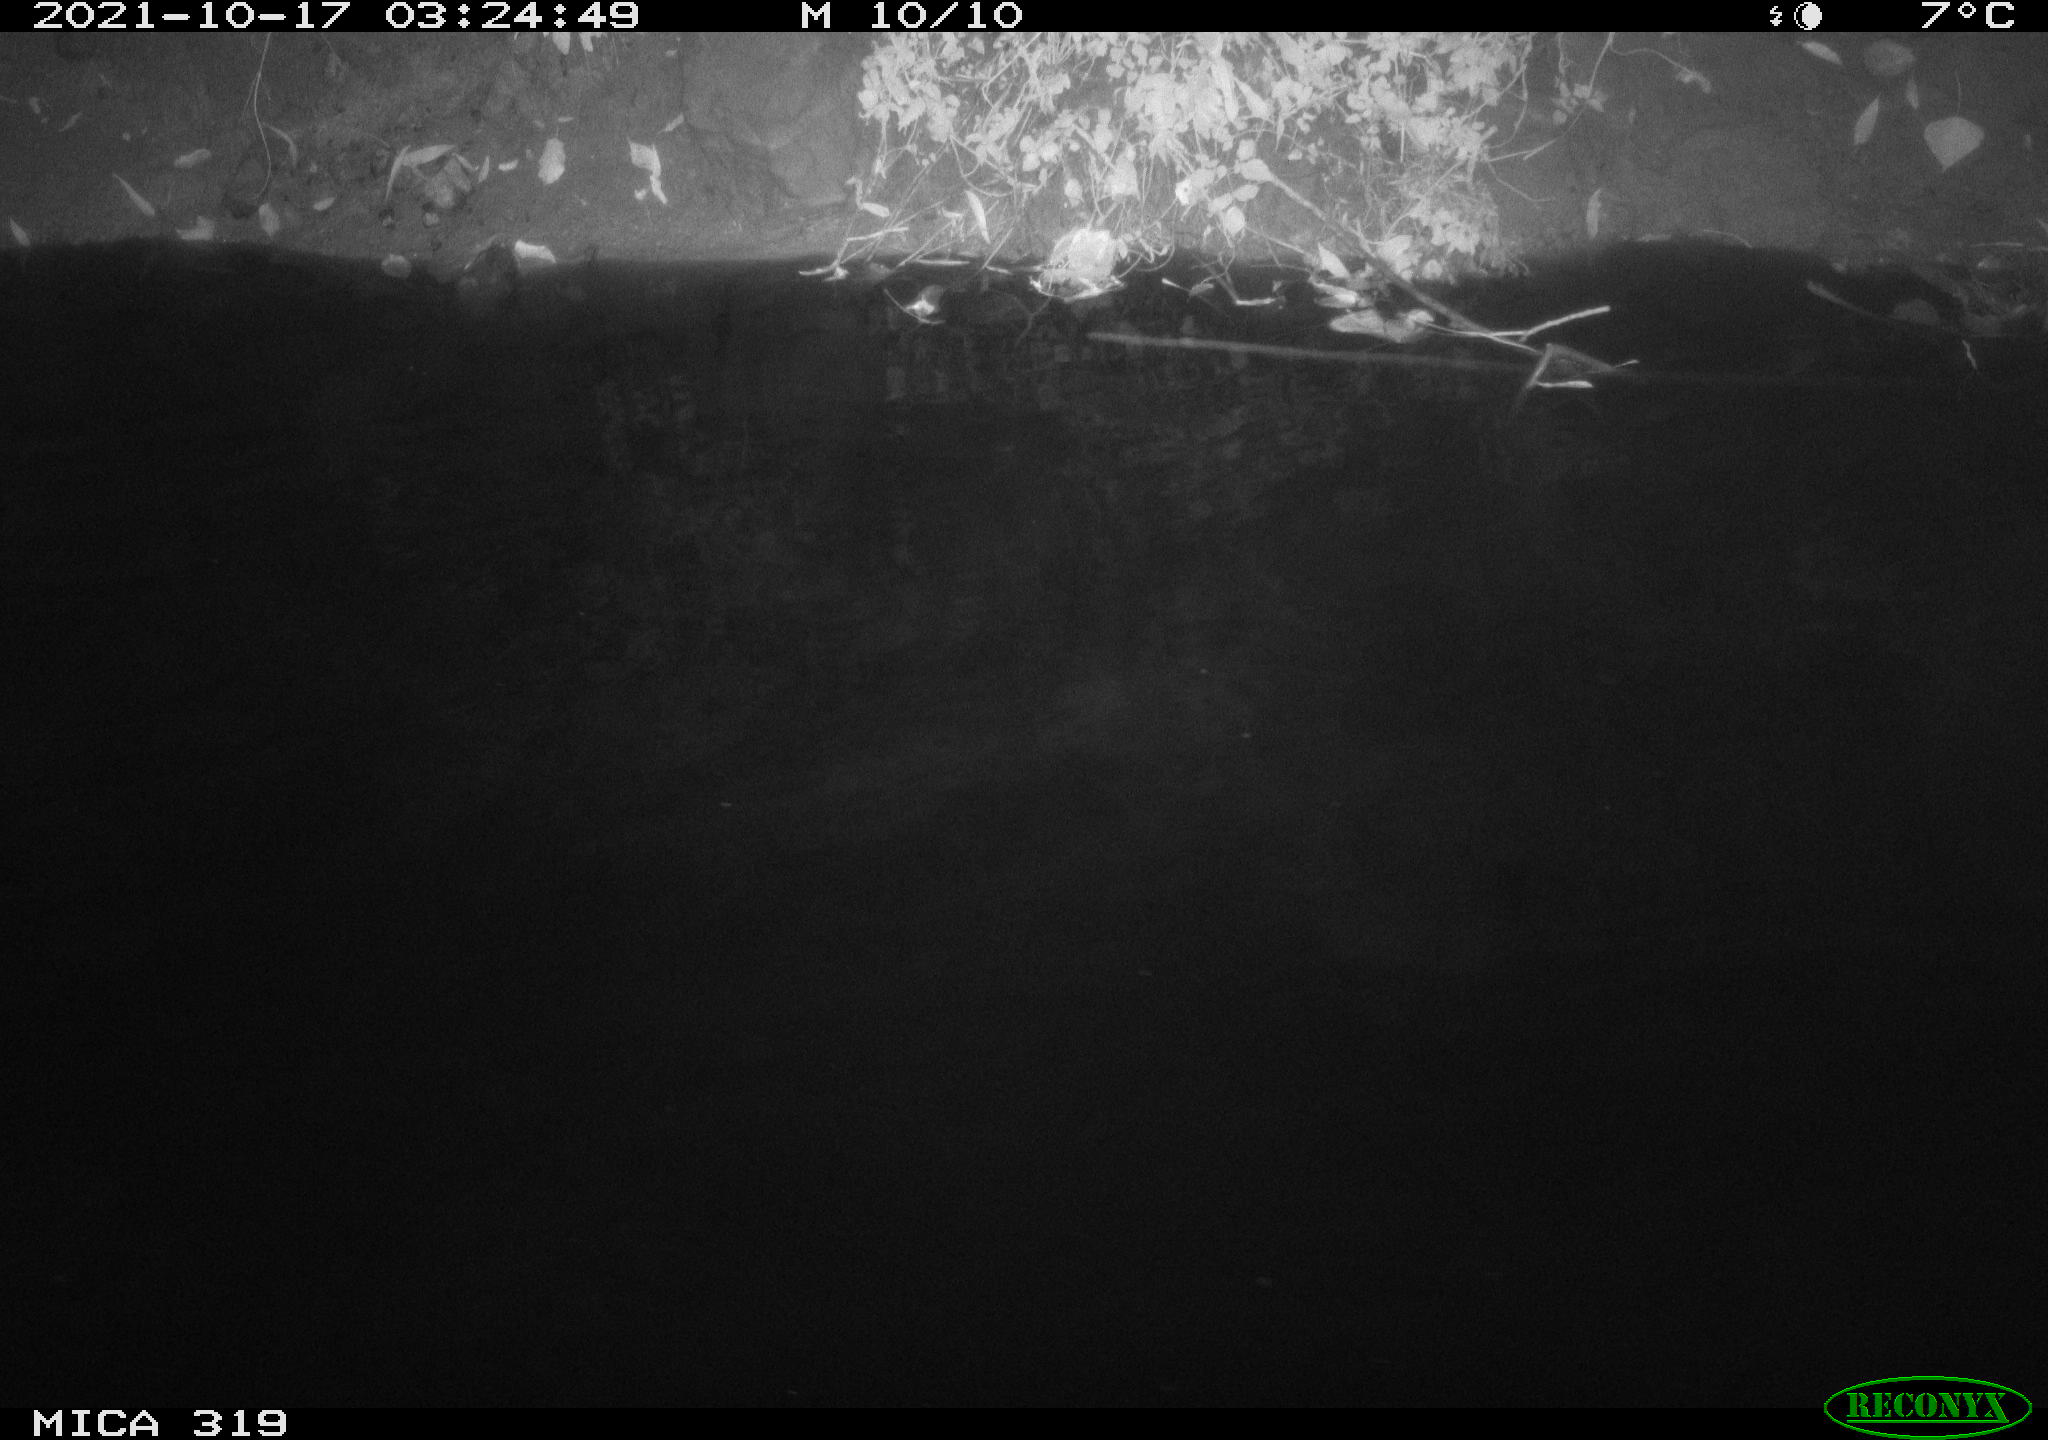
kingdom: Animalia
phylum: Chordata
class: Aves
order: Anseriformes
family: Anatidae
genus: Anas
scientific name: Anas platyrhynchos
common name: Mallard
